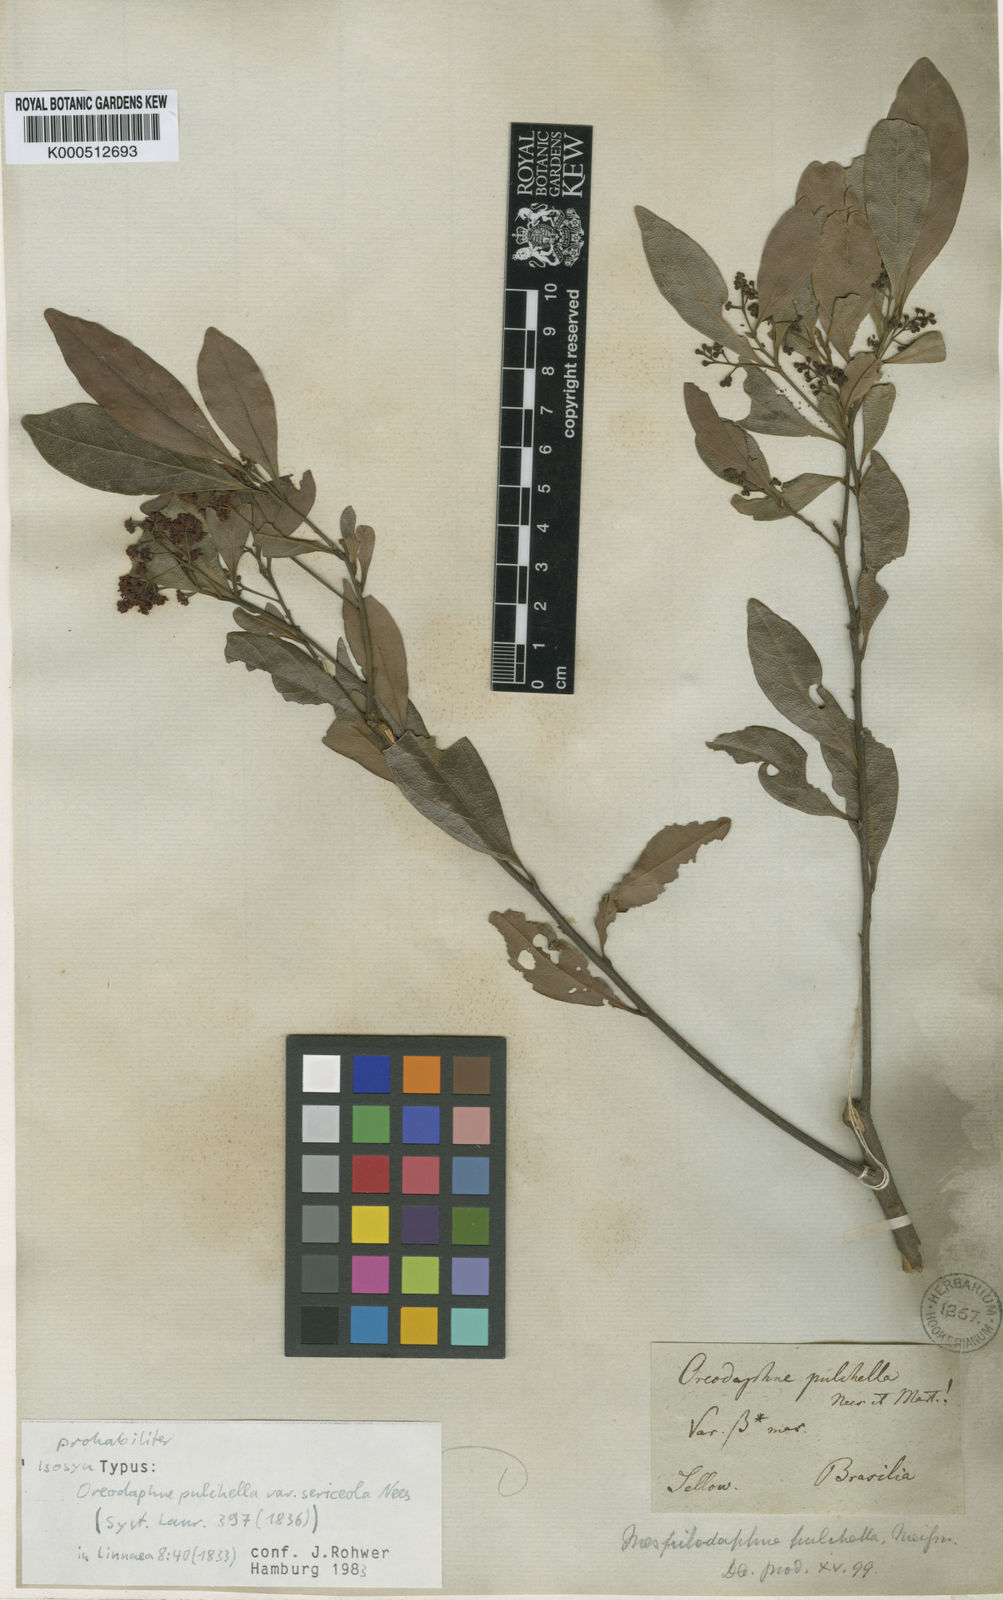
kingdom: Plantae
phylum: Tracheophyta
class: Magnoliopsida
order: Laurales
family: Lauraceae
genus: Mespilodaphne
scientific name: Mespilodaphne pulchella
